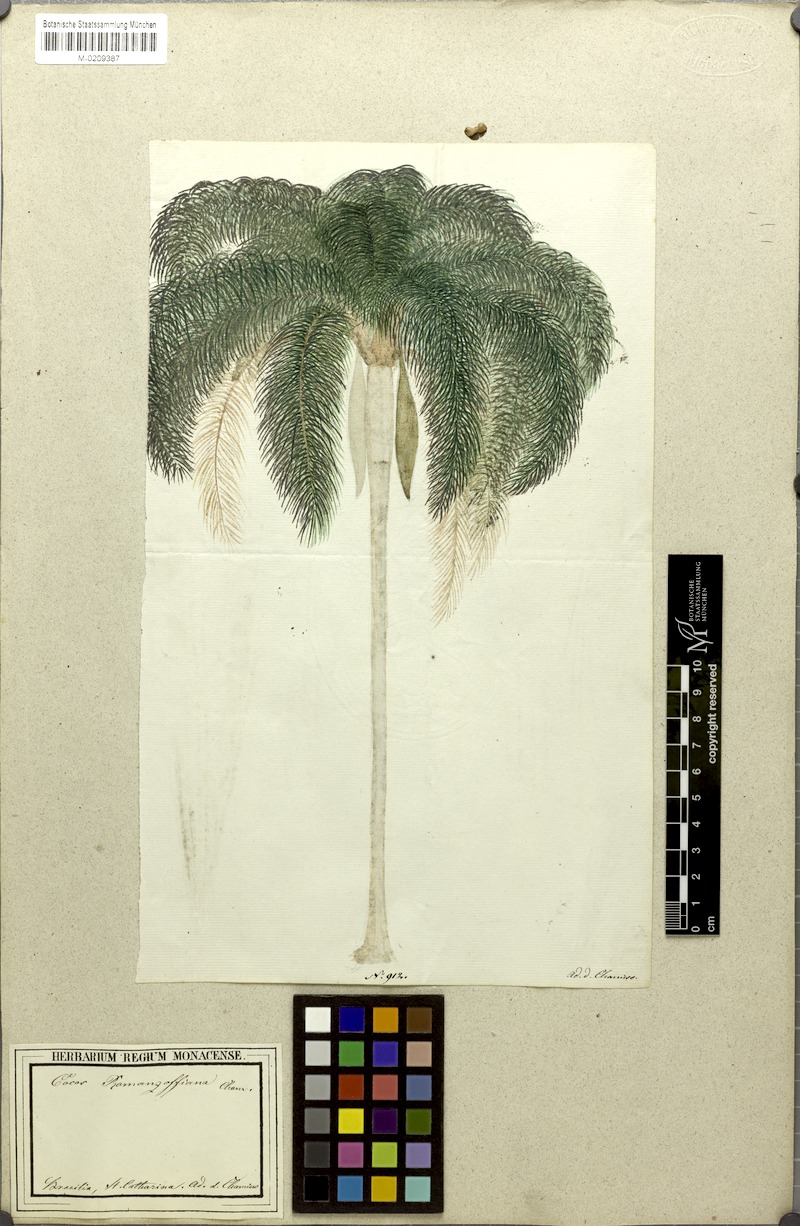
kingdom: Plantae
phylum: Tracheophyta
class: Liliopsida
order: Arecales
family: Arecaceae
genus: Syagrus
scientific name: Syagrus romanzoffiana
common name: Queen palm
